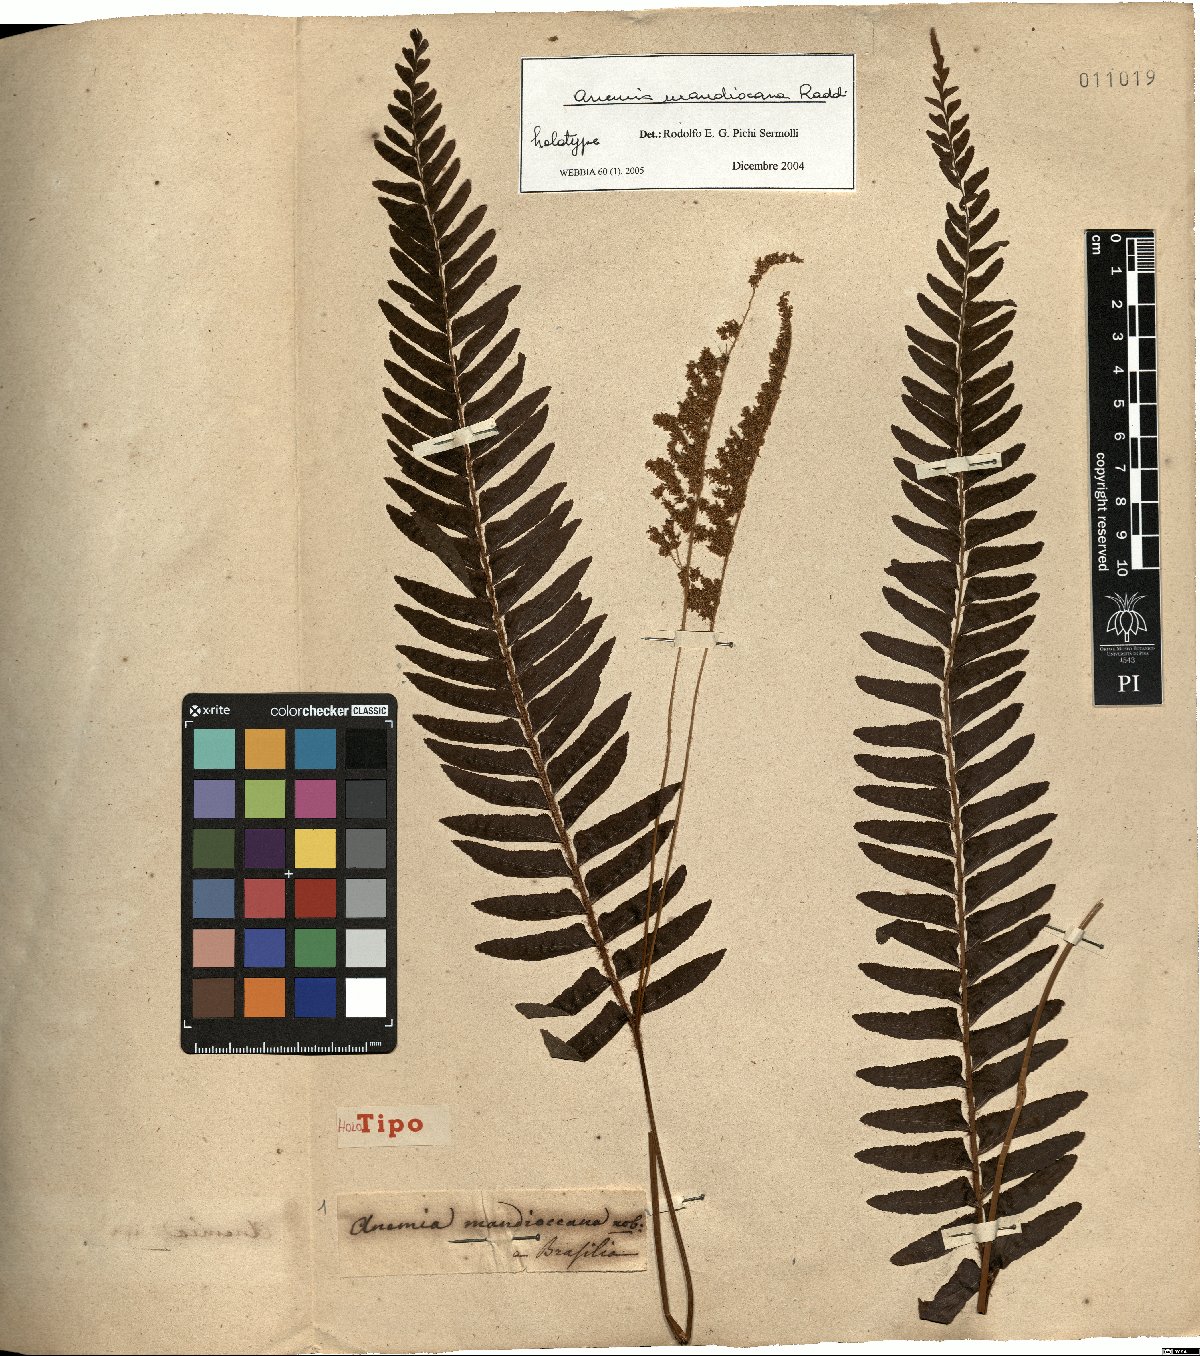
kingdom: Plantae
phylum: Tracheophyta
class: Polypodiopsida
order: Schizaeales
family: Anemiaceae
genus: Anemia
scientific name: Anemia mandiocana
